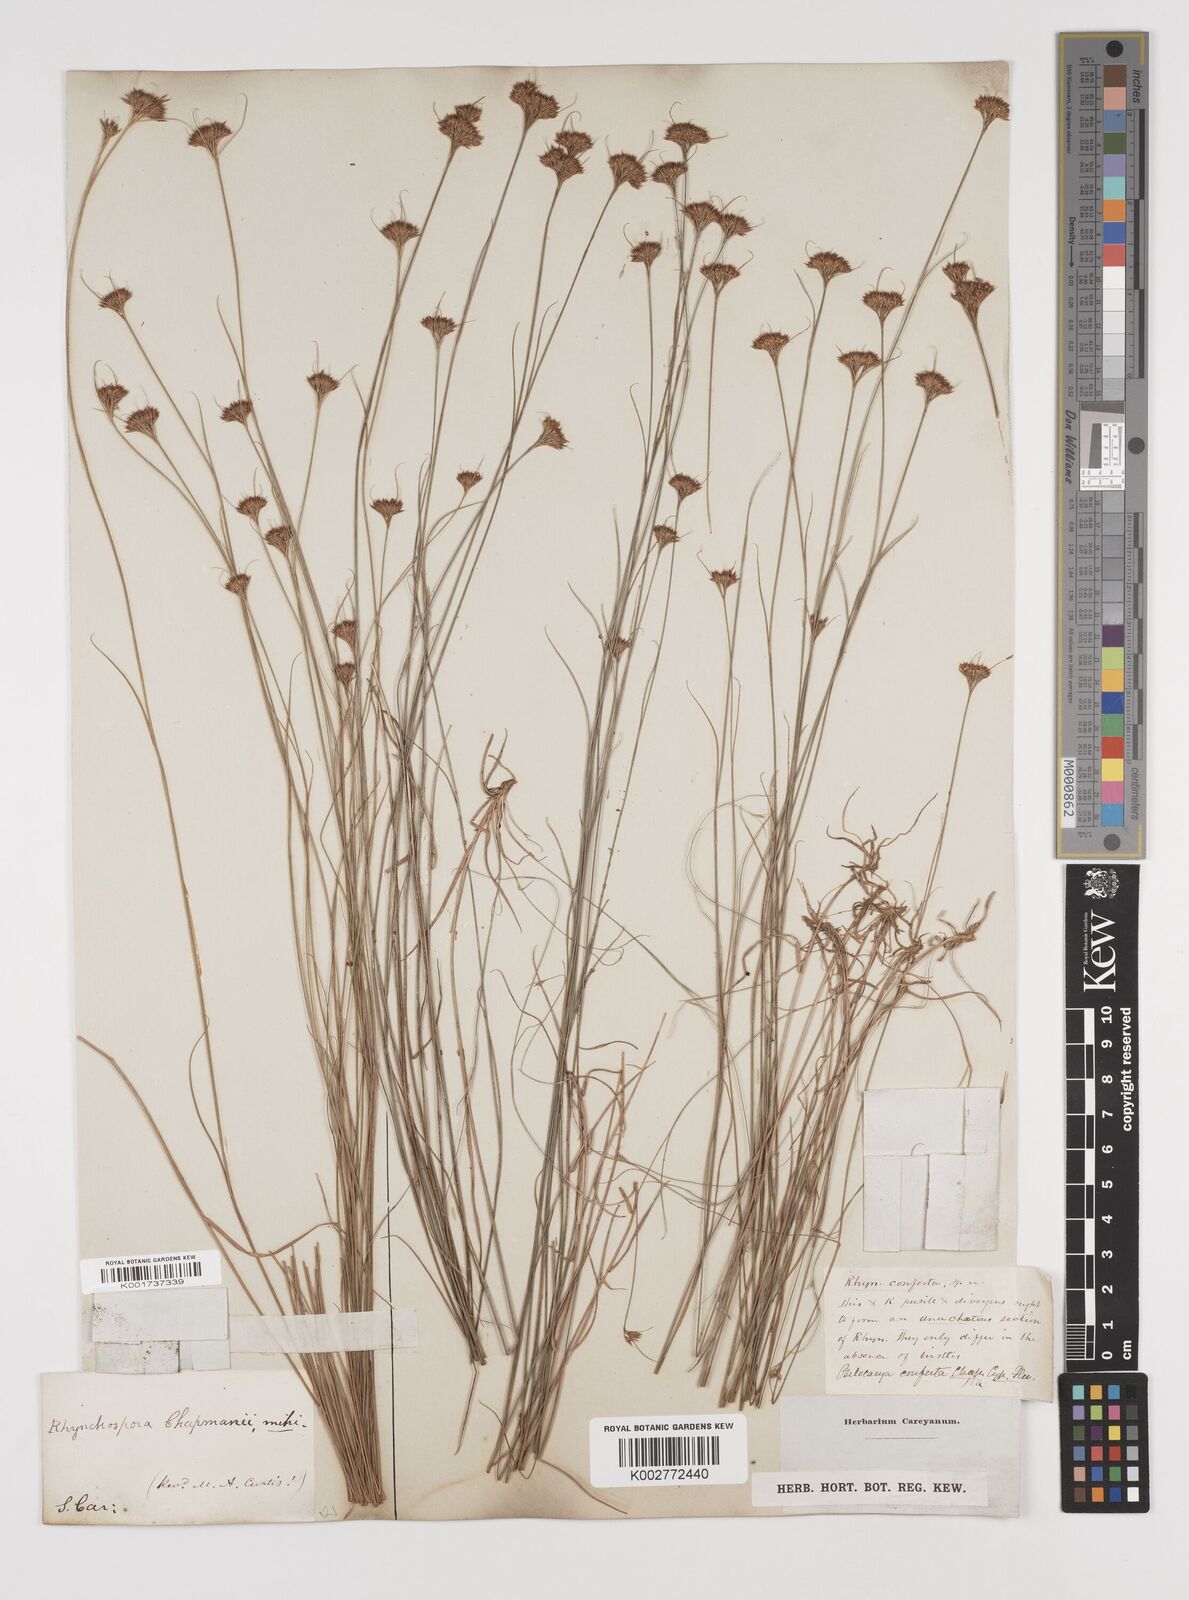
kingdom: Plantae
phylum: Tracheophyta
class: Liliopsida
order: Poales
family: Cyperaceae
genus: Rhynchospora
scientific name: Rhynchospora
